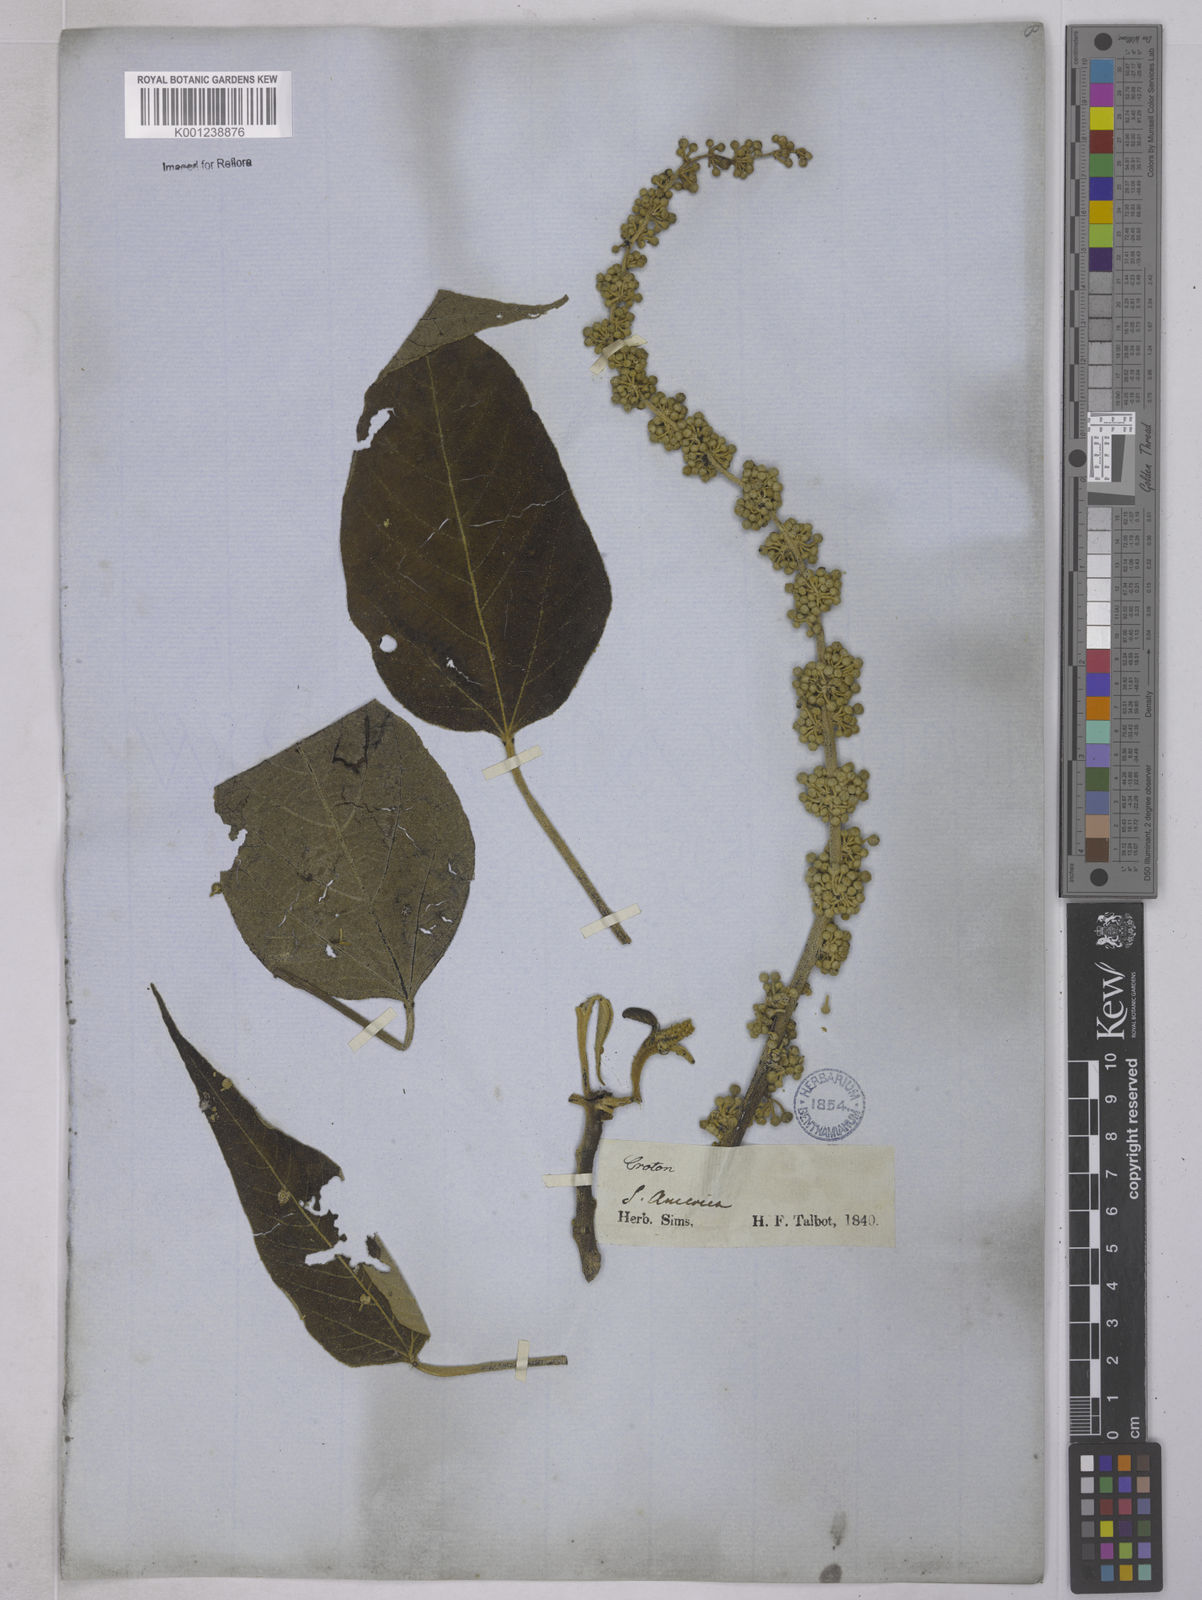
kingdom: Plantae
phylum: Tracheophyta
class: Magnoliopsida
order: Malpighiales
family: Euphorbiaceae
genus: Croton
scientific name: Croton celtidifolius
